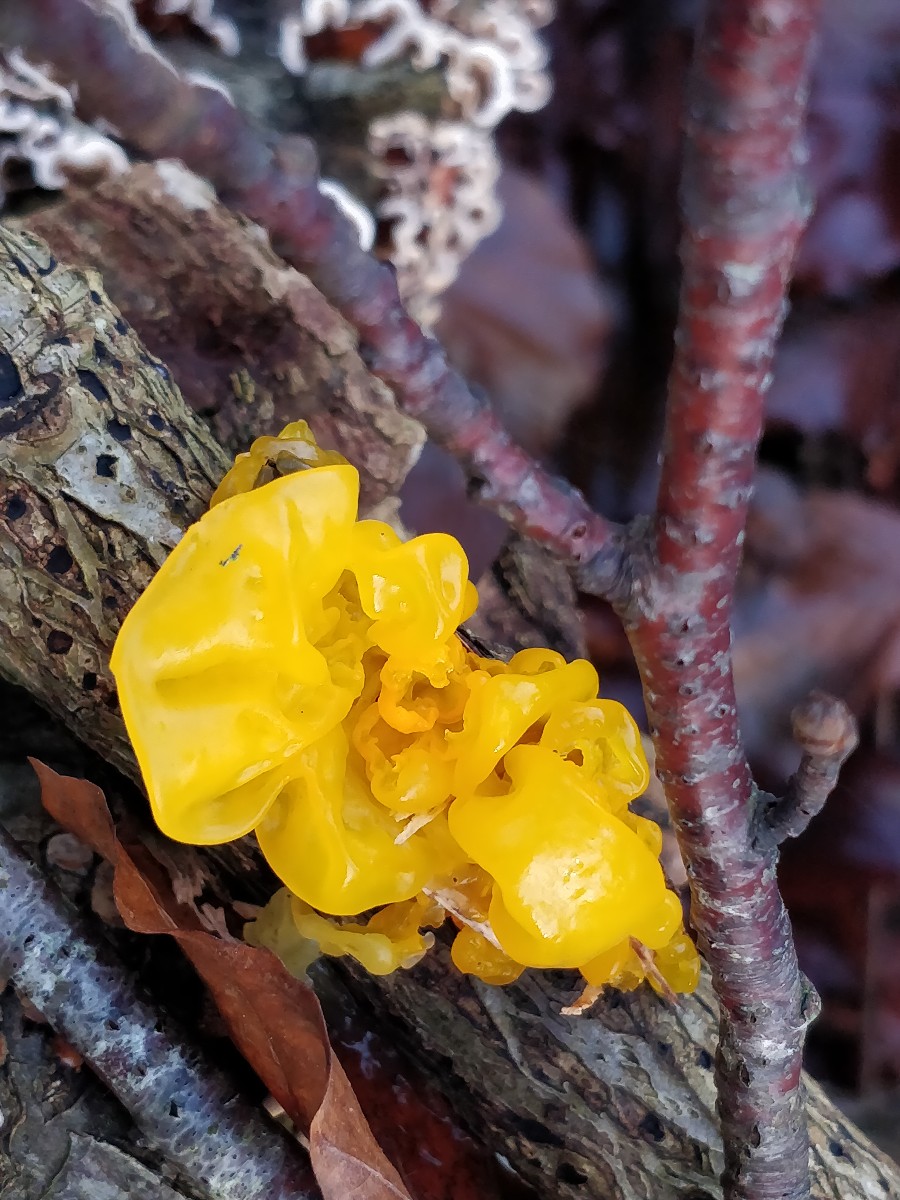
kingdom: Fungi
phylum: Basidiomycota
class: Tremellomycetes
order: Tremellales
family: Tremellaceae
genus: Tremella
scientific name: Tremella mesenterica
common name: gul bævresvamp
